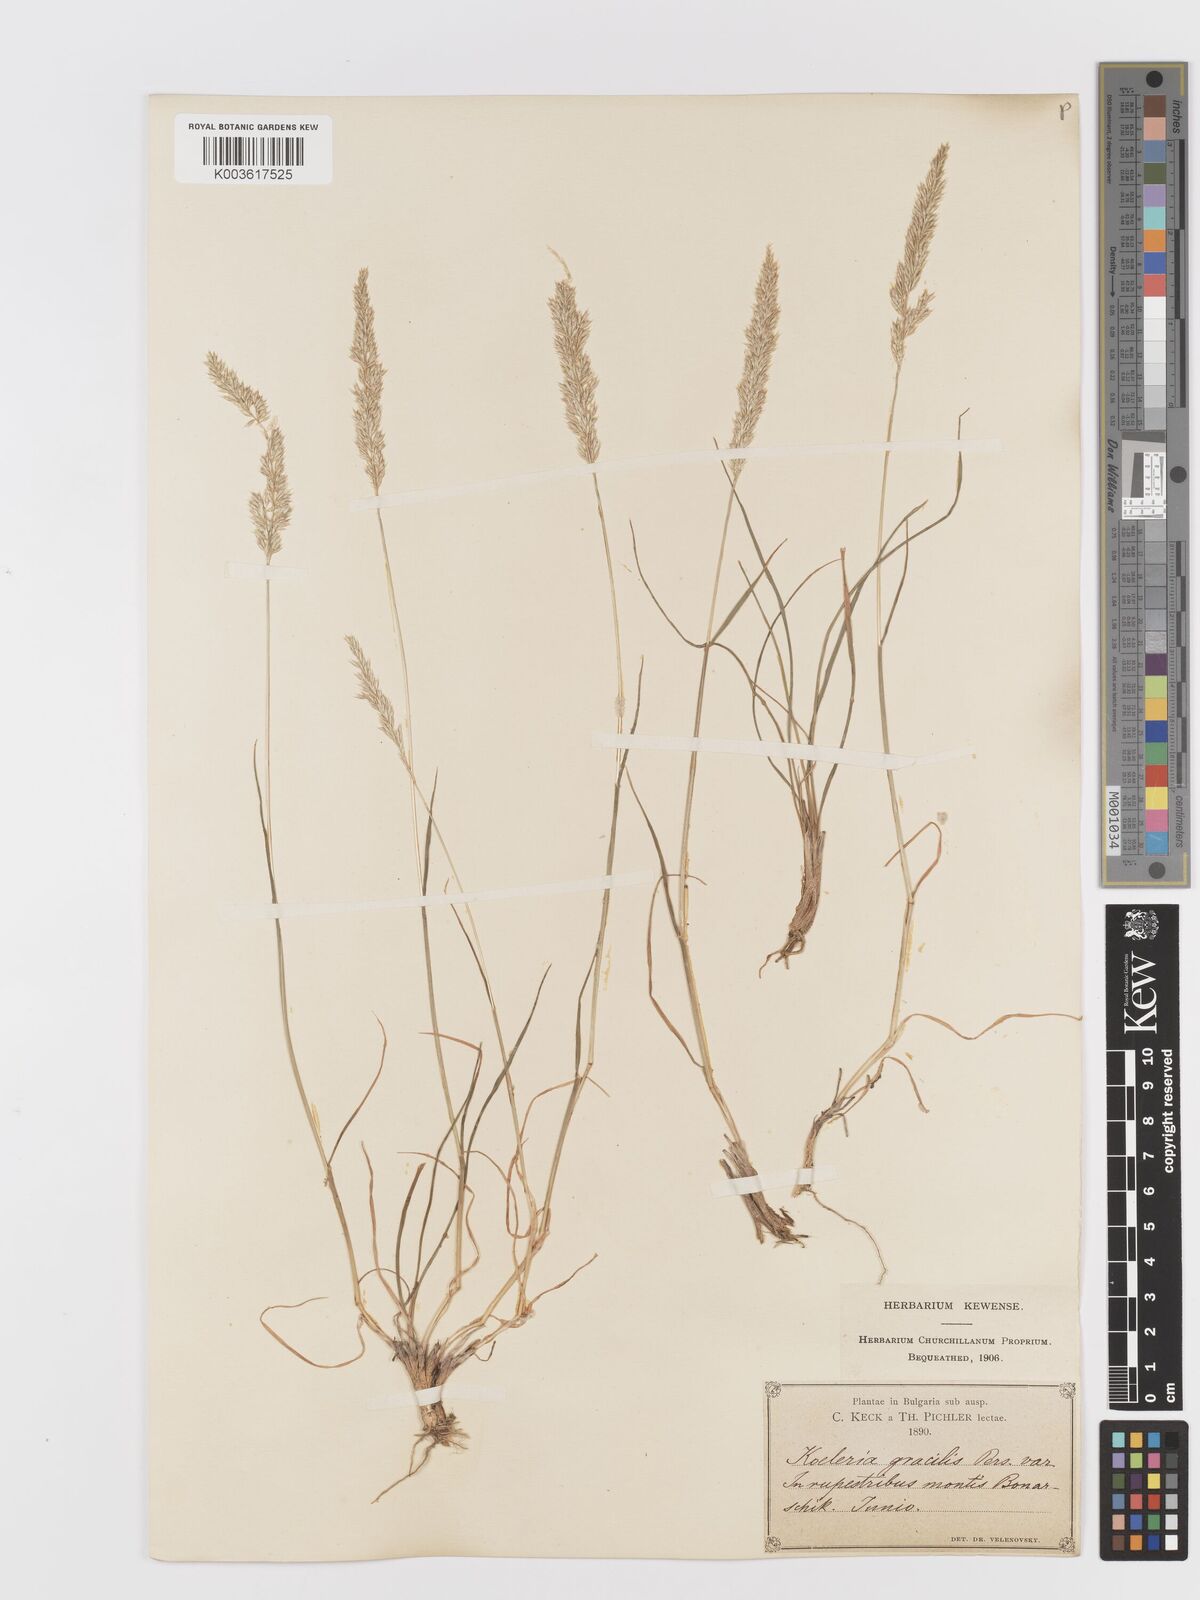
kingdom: Plantae
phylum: Tracheophyta
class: Liliopsida
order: Poales
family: Poaceae
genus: Koeleria
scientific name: Koeleria
